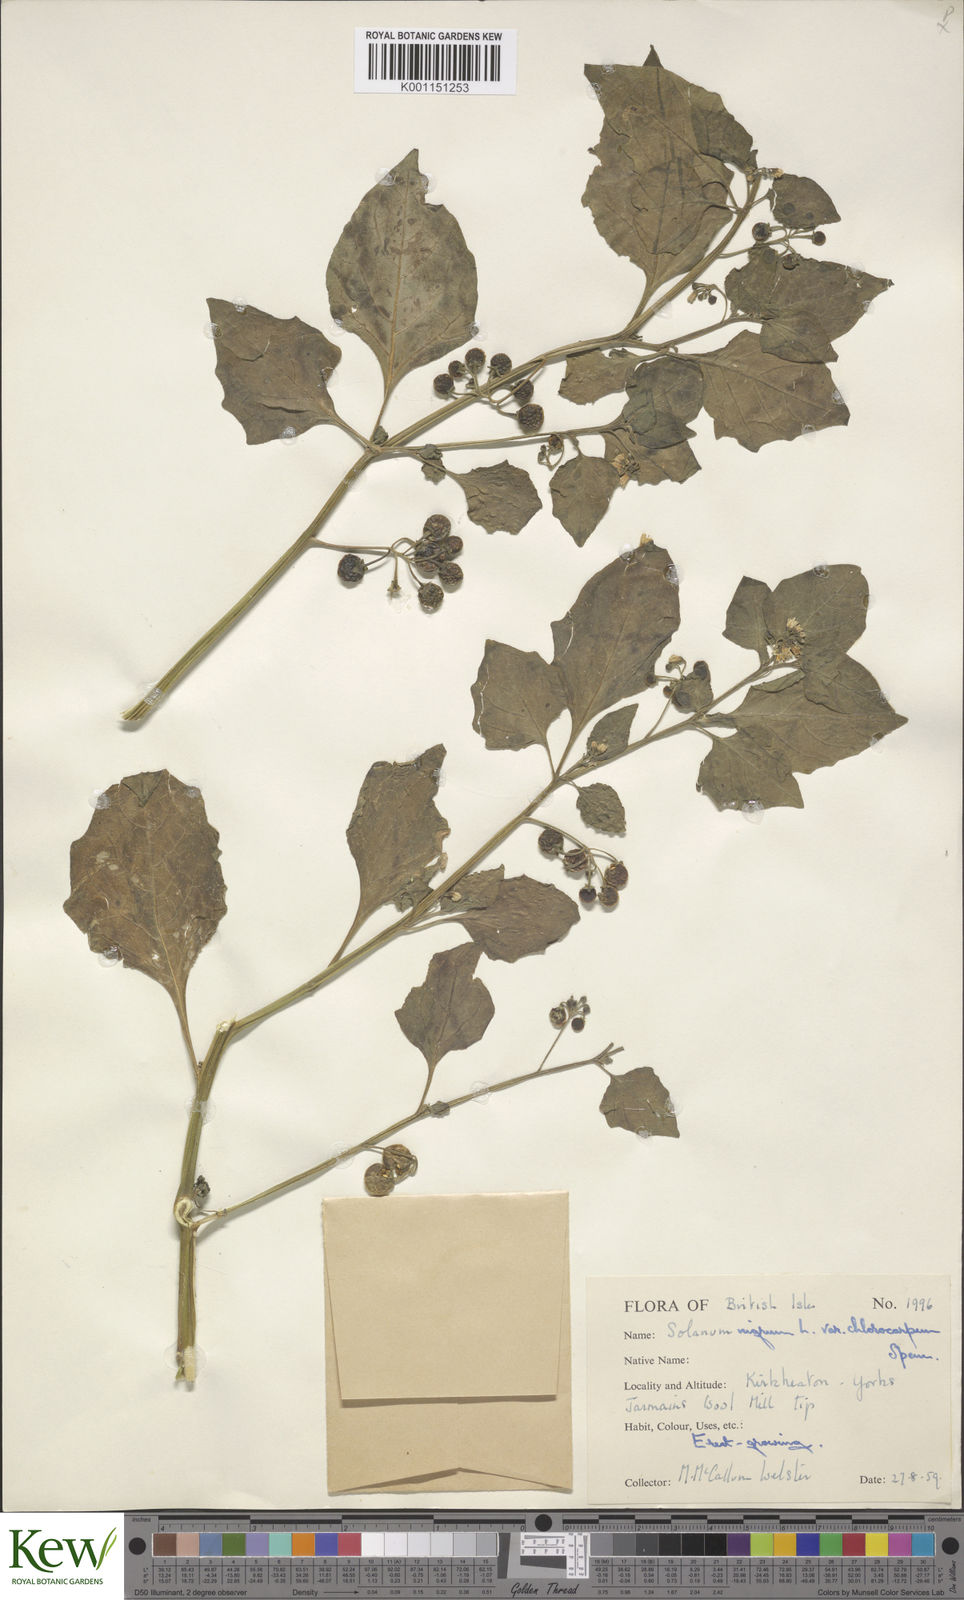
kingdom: Plantae
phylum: Tracheophyta
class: Magnoliopsida
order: Solanales
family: Solanaceae
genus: Solanum
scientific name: Solanum nigrum
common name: Black nightshade
